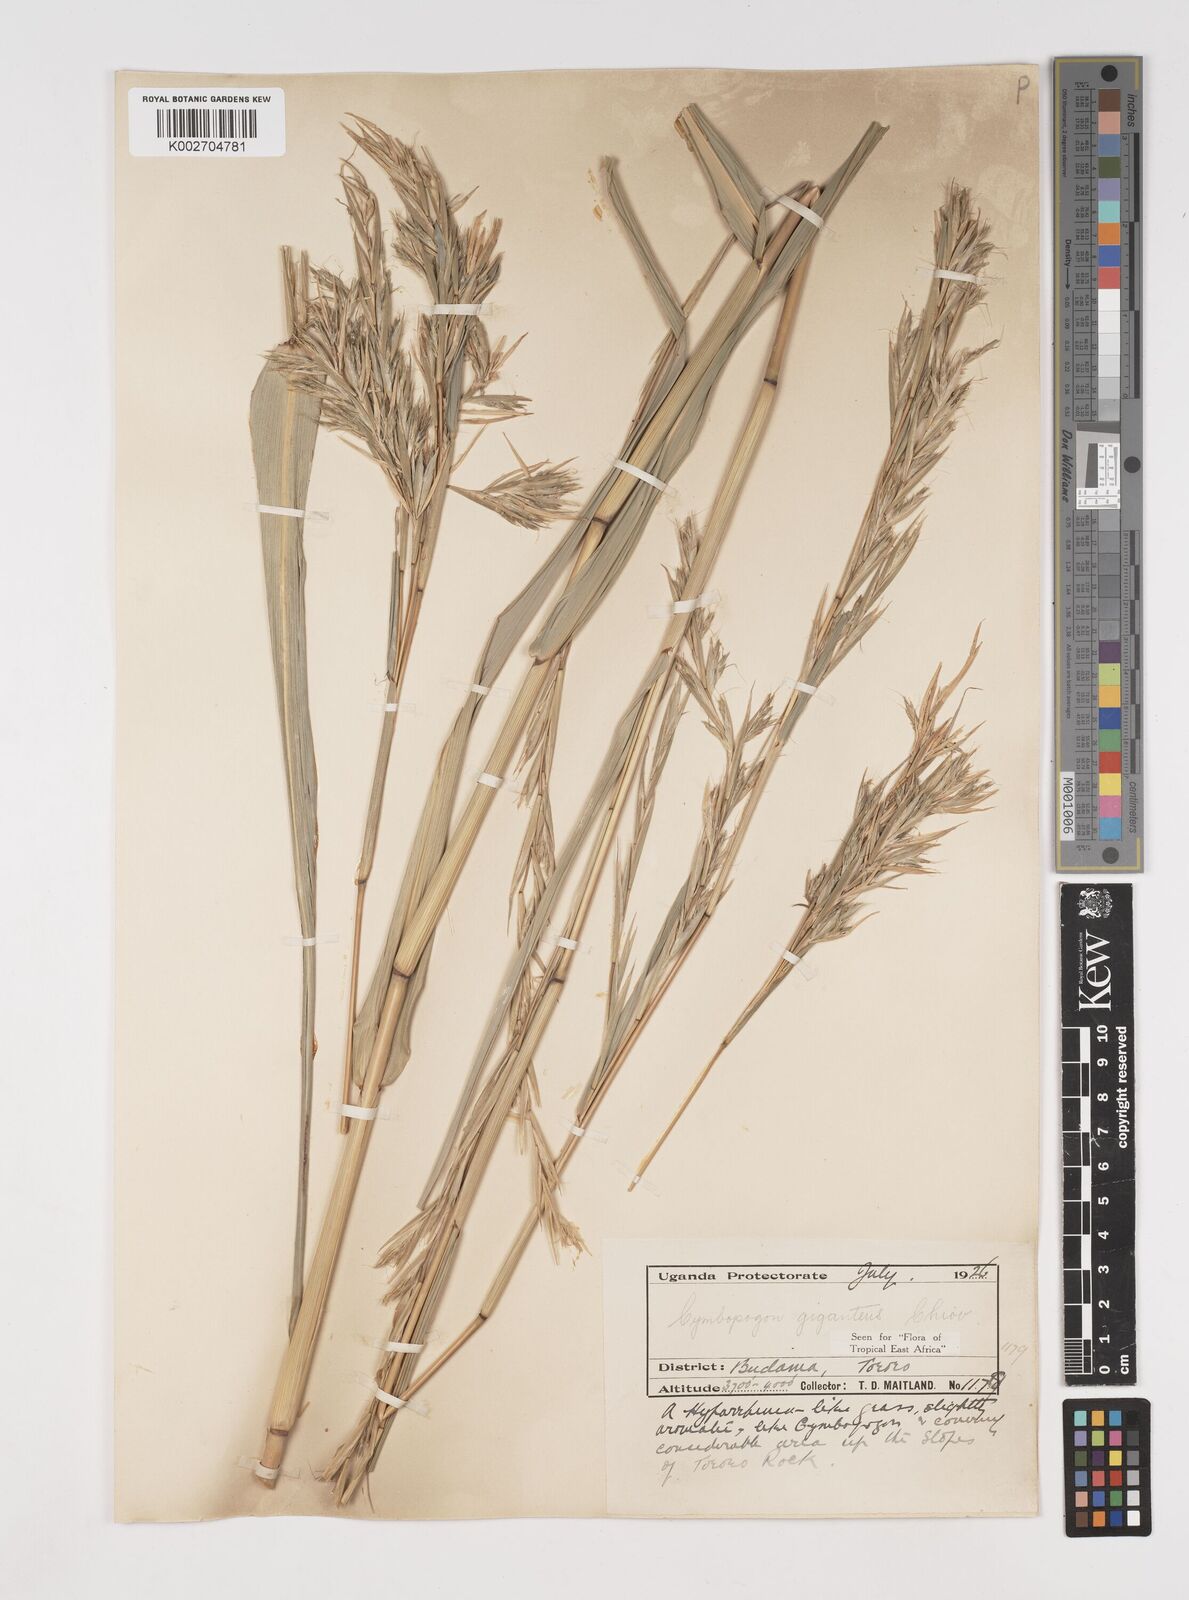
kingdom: Plantae
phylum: Tracheophyta
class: Liliopsida
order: Poales
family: Poaceae
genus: Cymbopogon
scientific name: Cymbopogon giganteus
